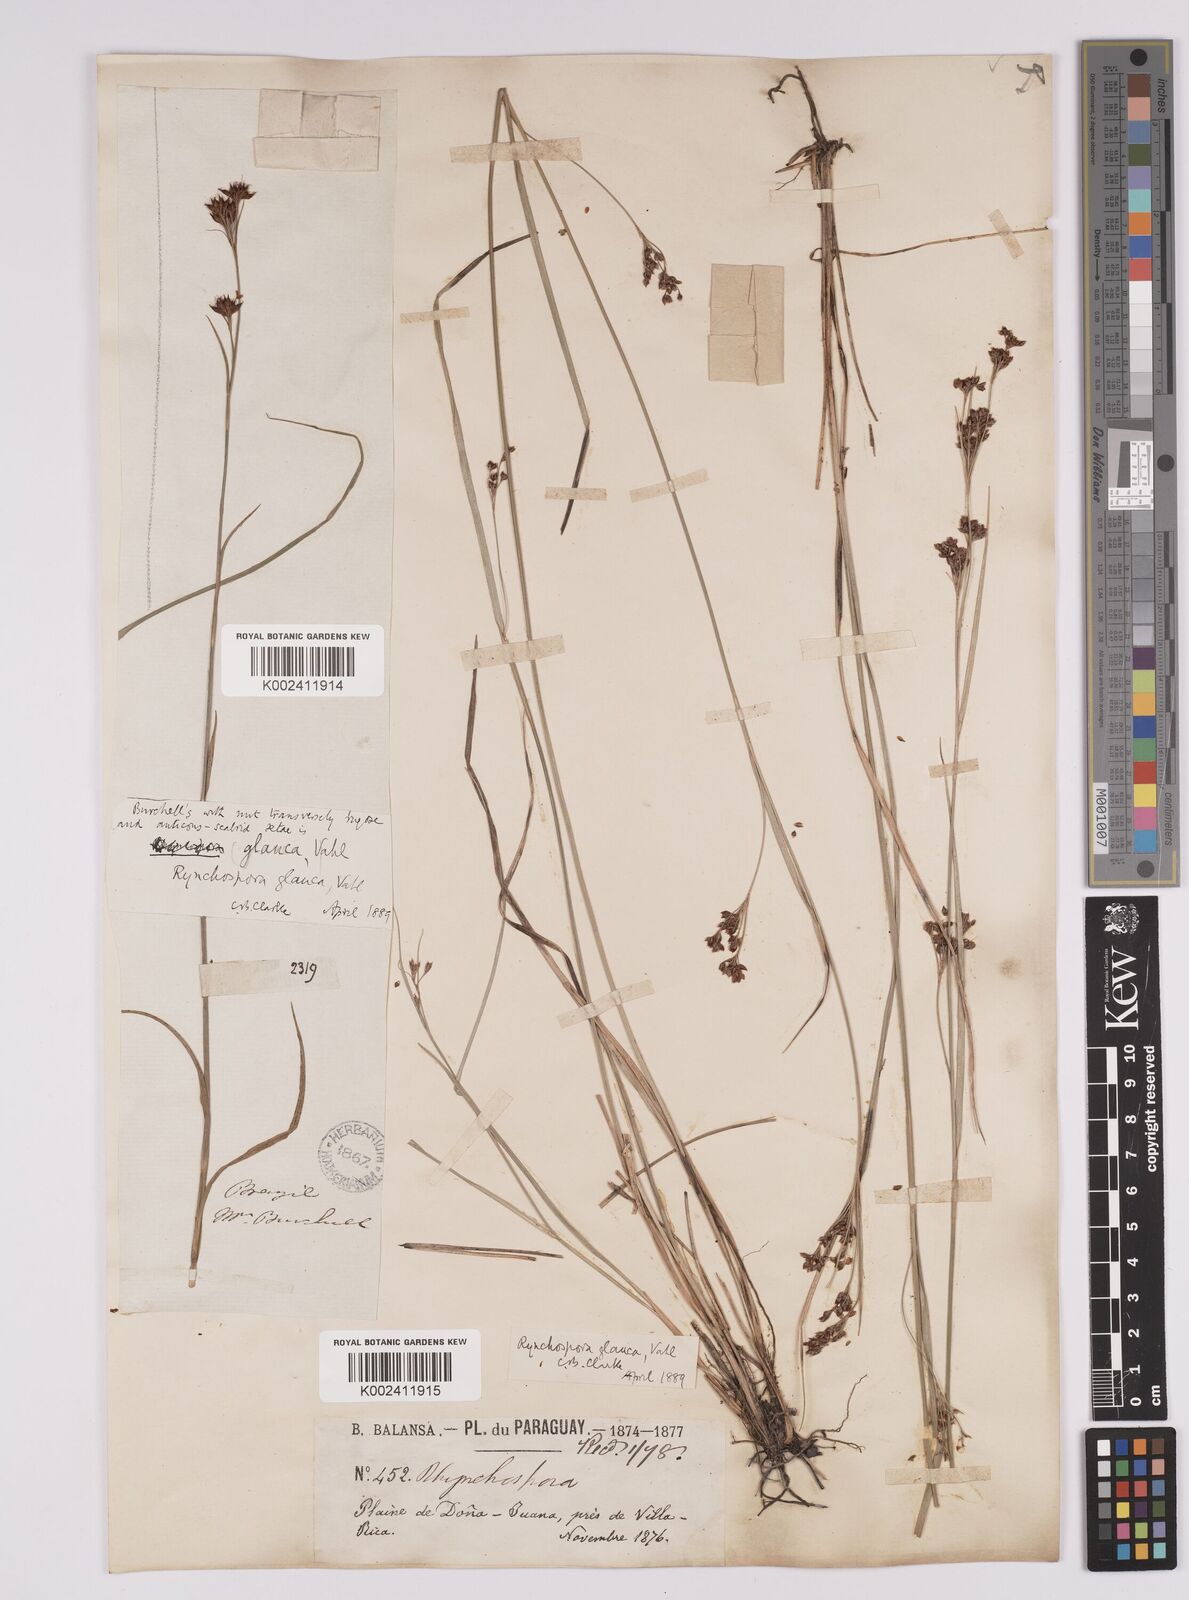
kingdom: Plantae
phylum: Tracheophyta
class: Liliopsida
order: Poales
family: Cyperaceae
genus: Rhynchospora
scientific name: Rhynchospora rugosa
